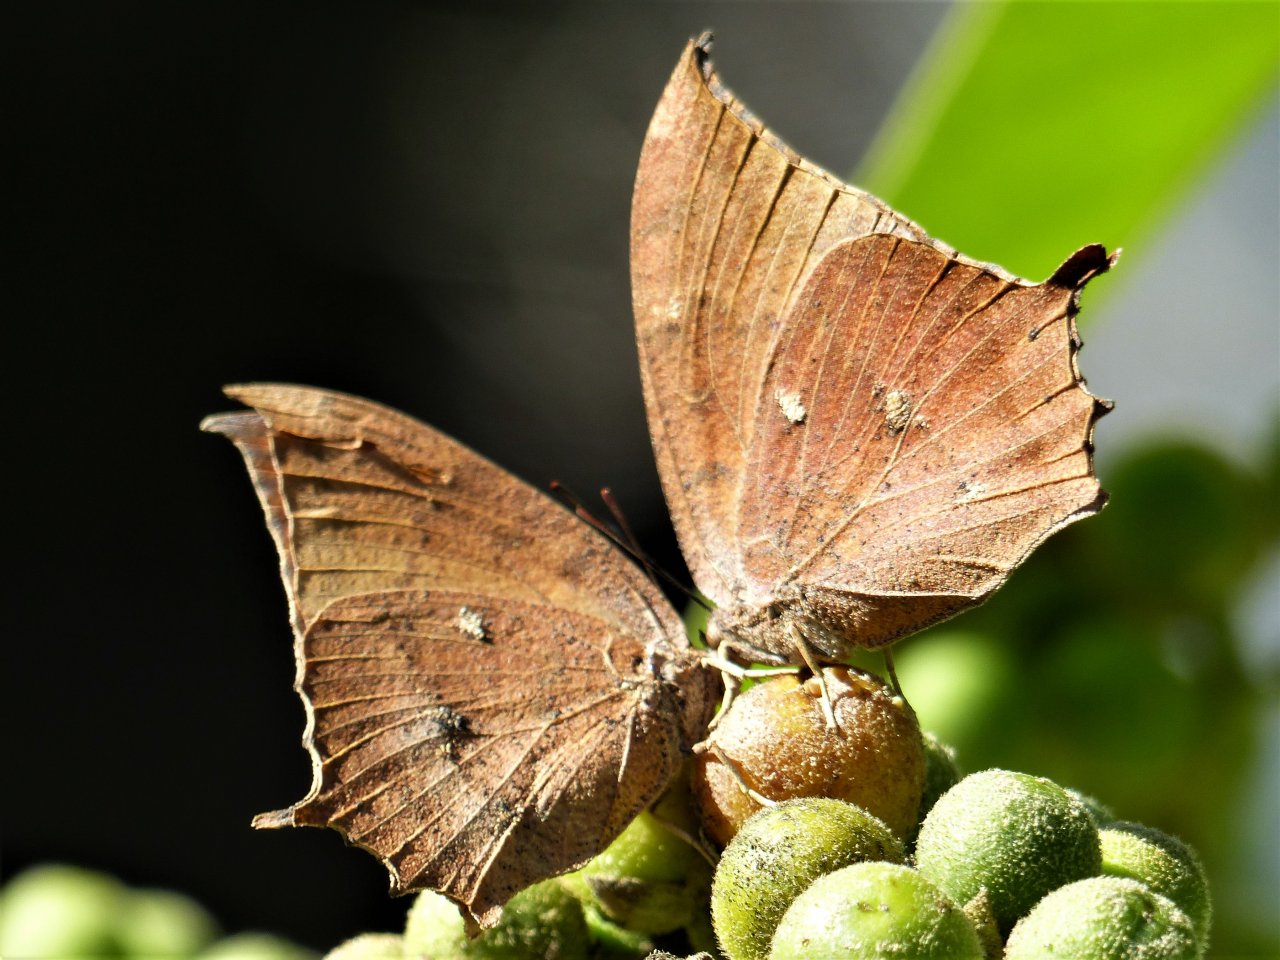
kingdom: Animalia
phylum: Arthropoda
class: Insecta
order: Lepidoptera
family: Nymphalidae
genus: Anaea
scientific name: Anaea aidea
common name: Tropical Leafwing
